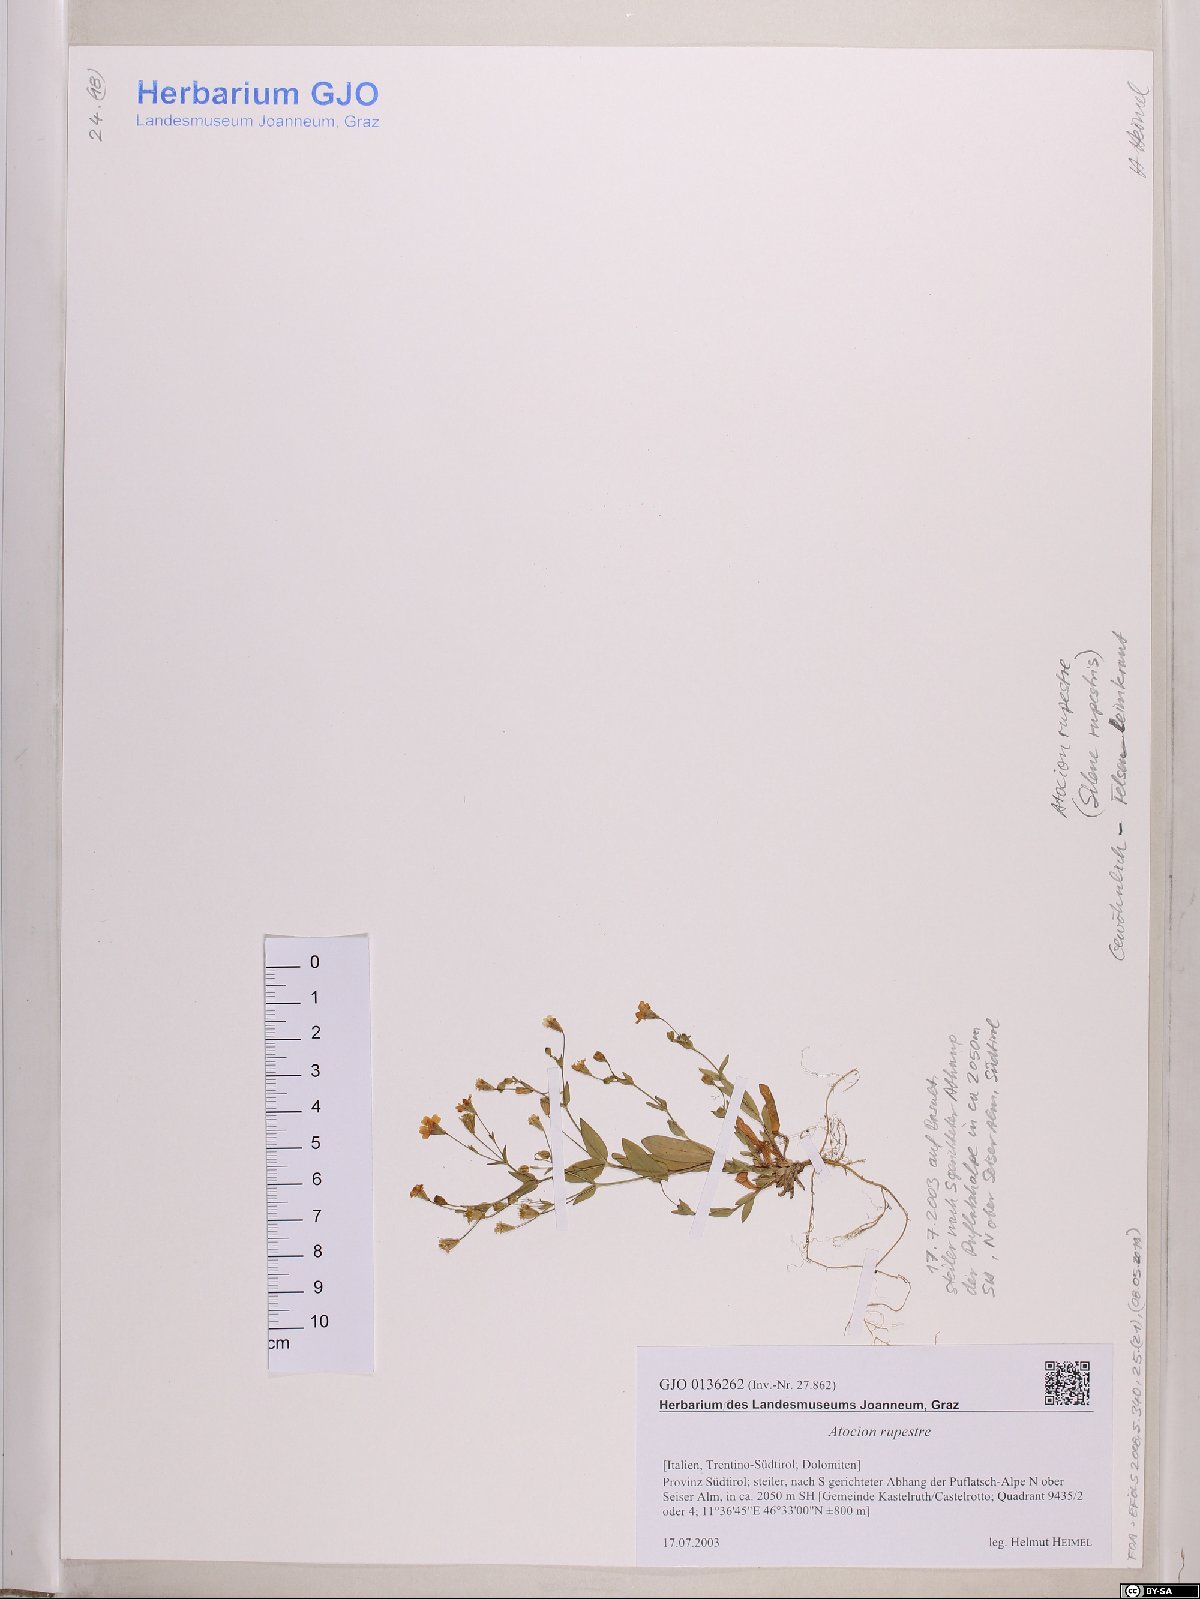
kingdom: Plantae
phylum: Tracheophyta
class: Magnoliopsida
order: Caryophyllales
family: Caryophyllaceae
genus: Atocion
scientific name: Atocion rupestre
